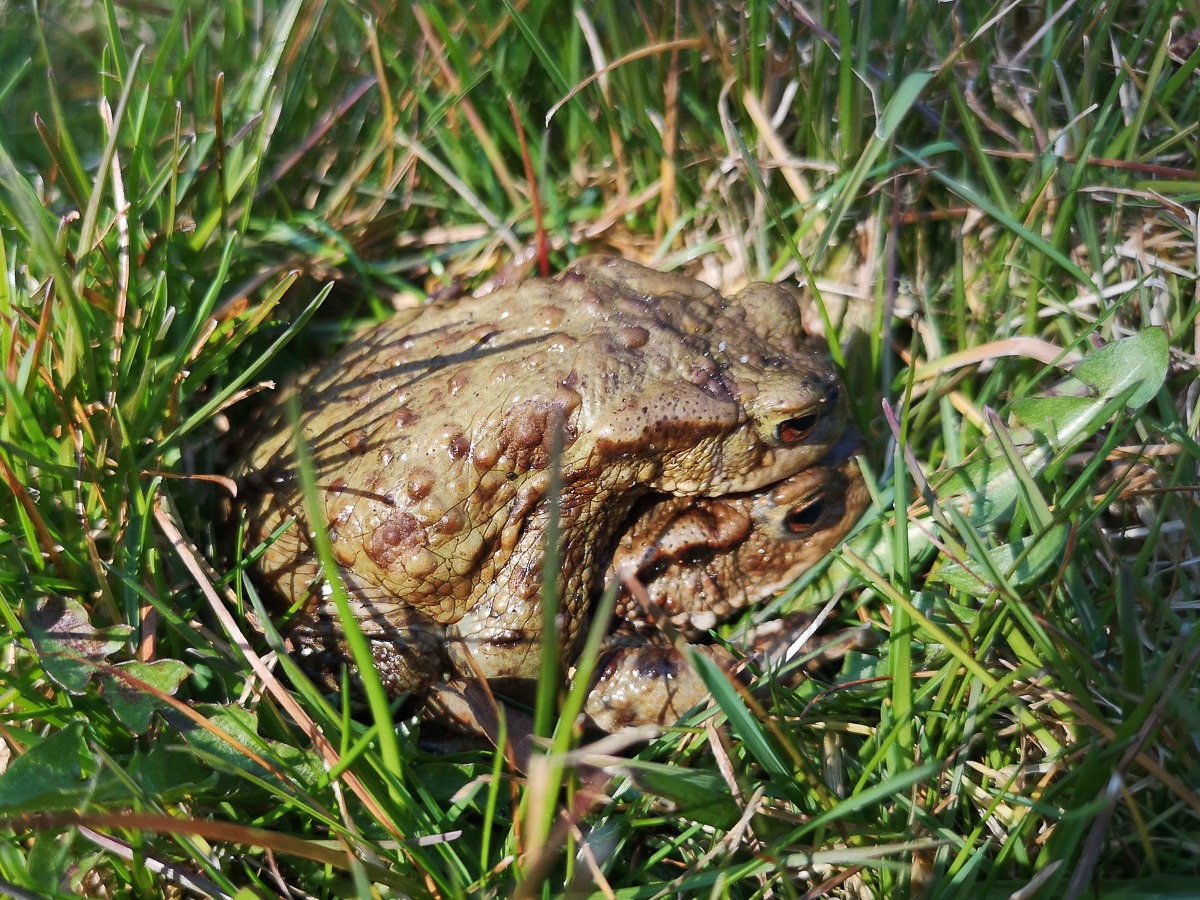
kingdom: Animalia
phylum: Chordata
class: Amphibia
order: Anura
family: Bufonidae
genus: Bufo
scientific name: Bufo bufo
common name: Skrubtudse
